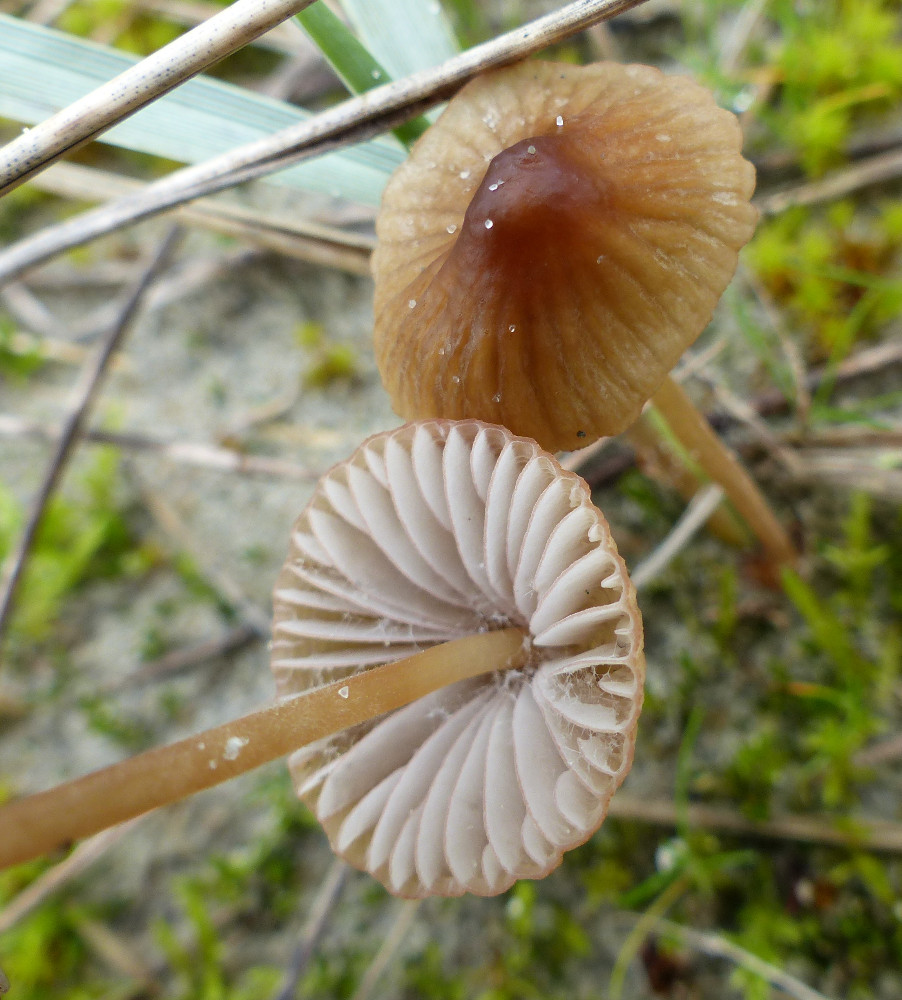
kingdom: Fungi
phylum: Basidiomycota
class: Agaricomycetes
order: Agaricales
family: Mycenaceae
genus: Mycena
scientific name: Mycena olivaceomarginata
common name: brunægget huesvamp
